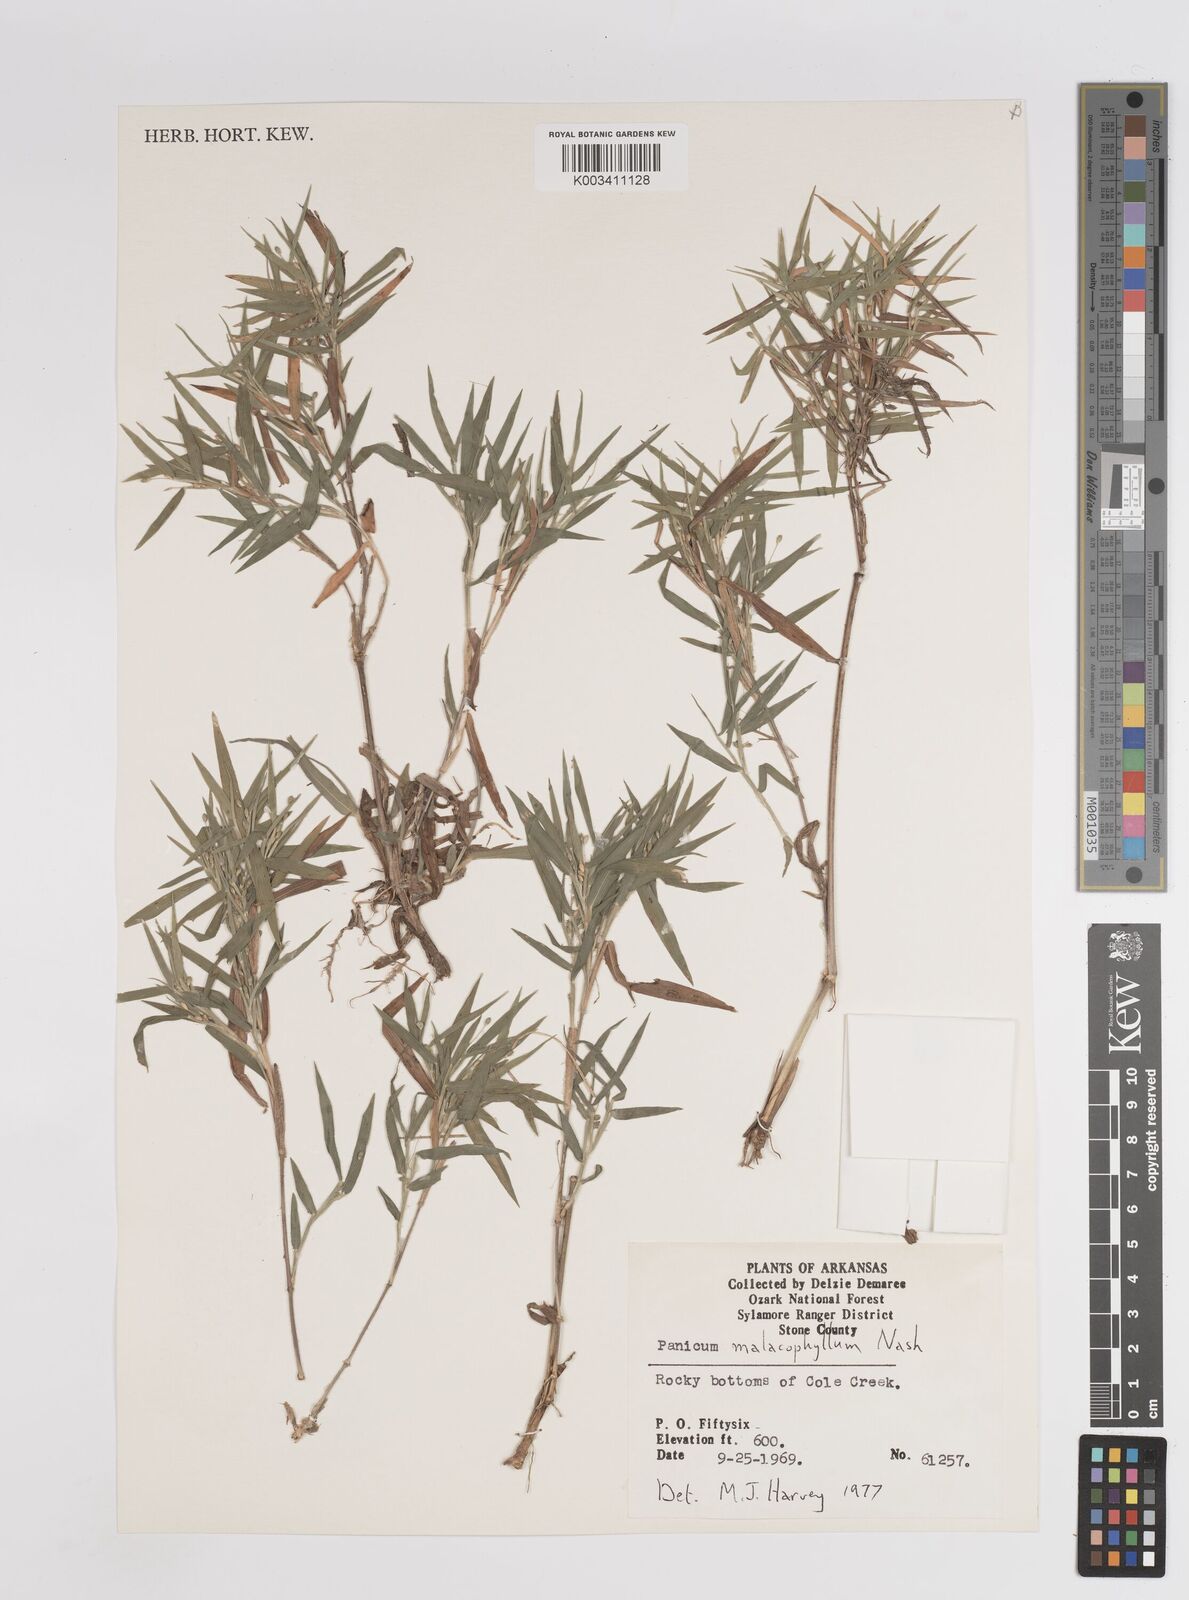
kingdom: Plantae
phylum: Tracheophyta
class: Liliopsida
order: Poales
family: Poaceae
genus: Dichanthelium
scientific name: Dichanthelium malacophyllum
